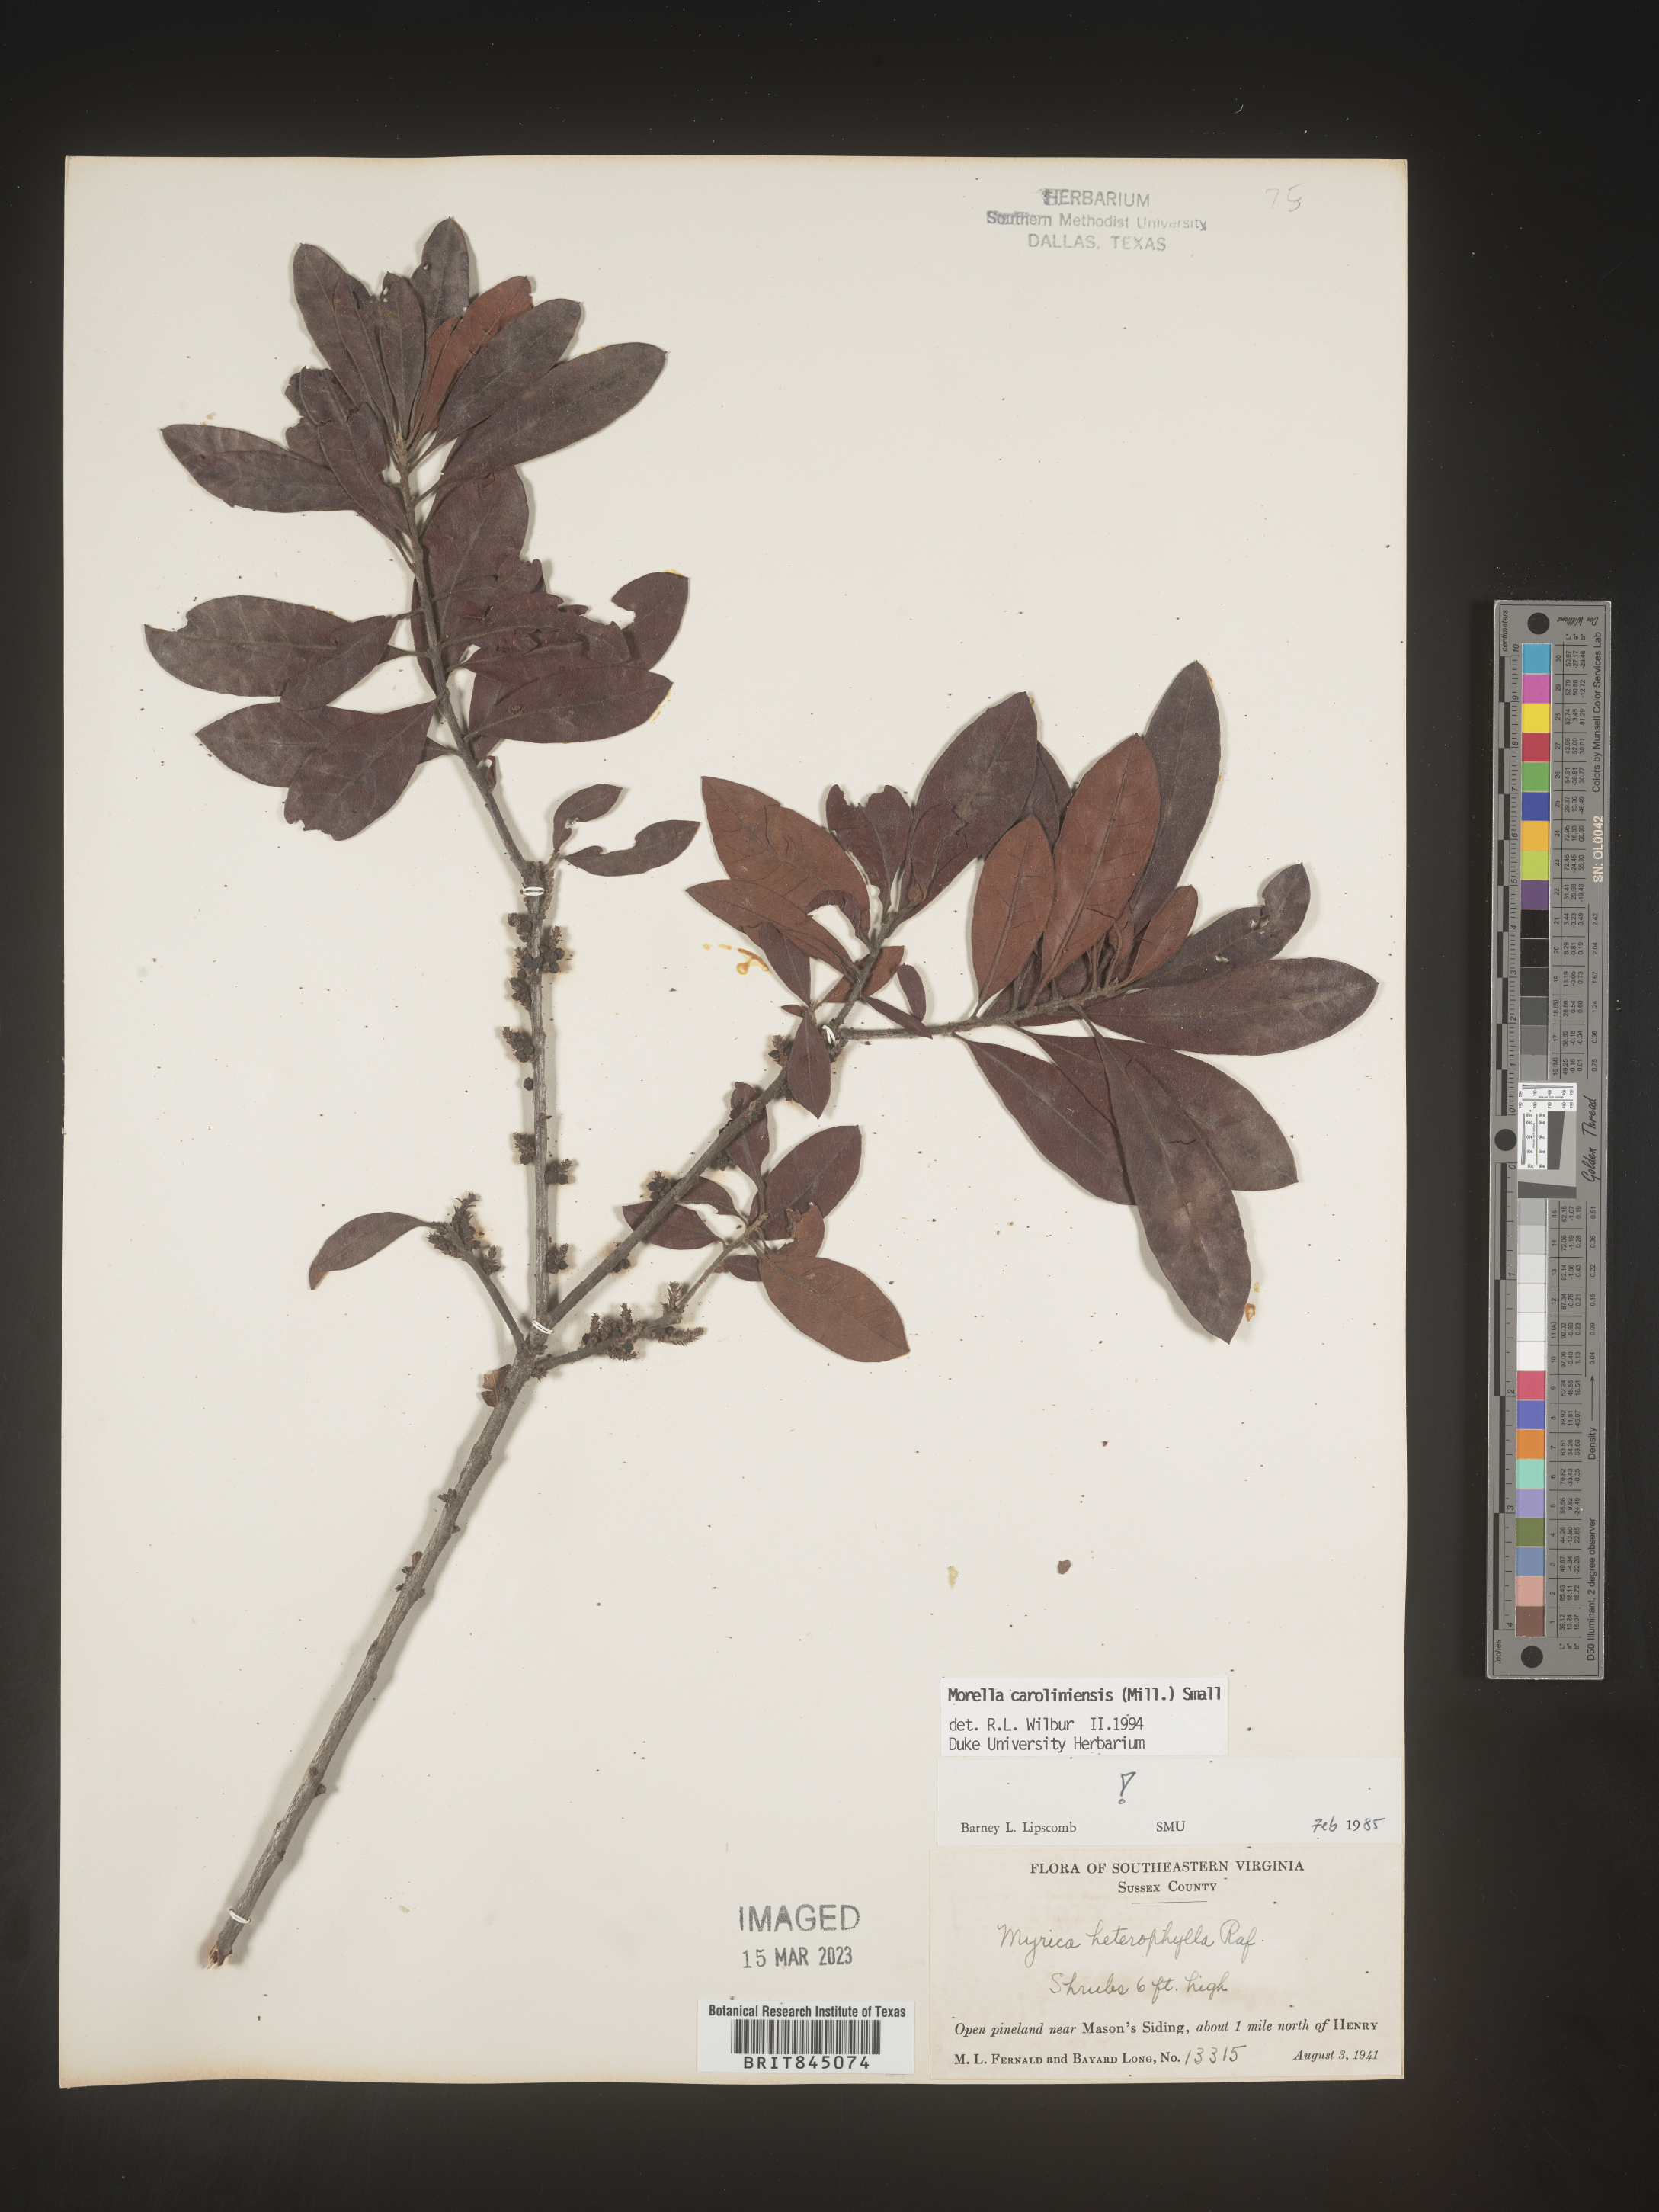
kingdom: Plantae
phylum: Tracheophyta
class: Magnoliopsida
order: Fagales
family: Myricaceae
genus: Morella
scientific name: Morella caroliniensis
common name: Evergreen bayberry
